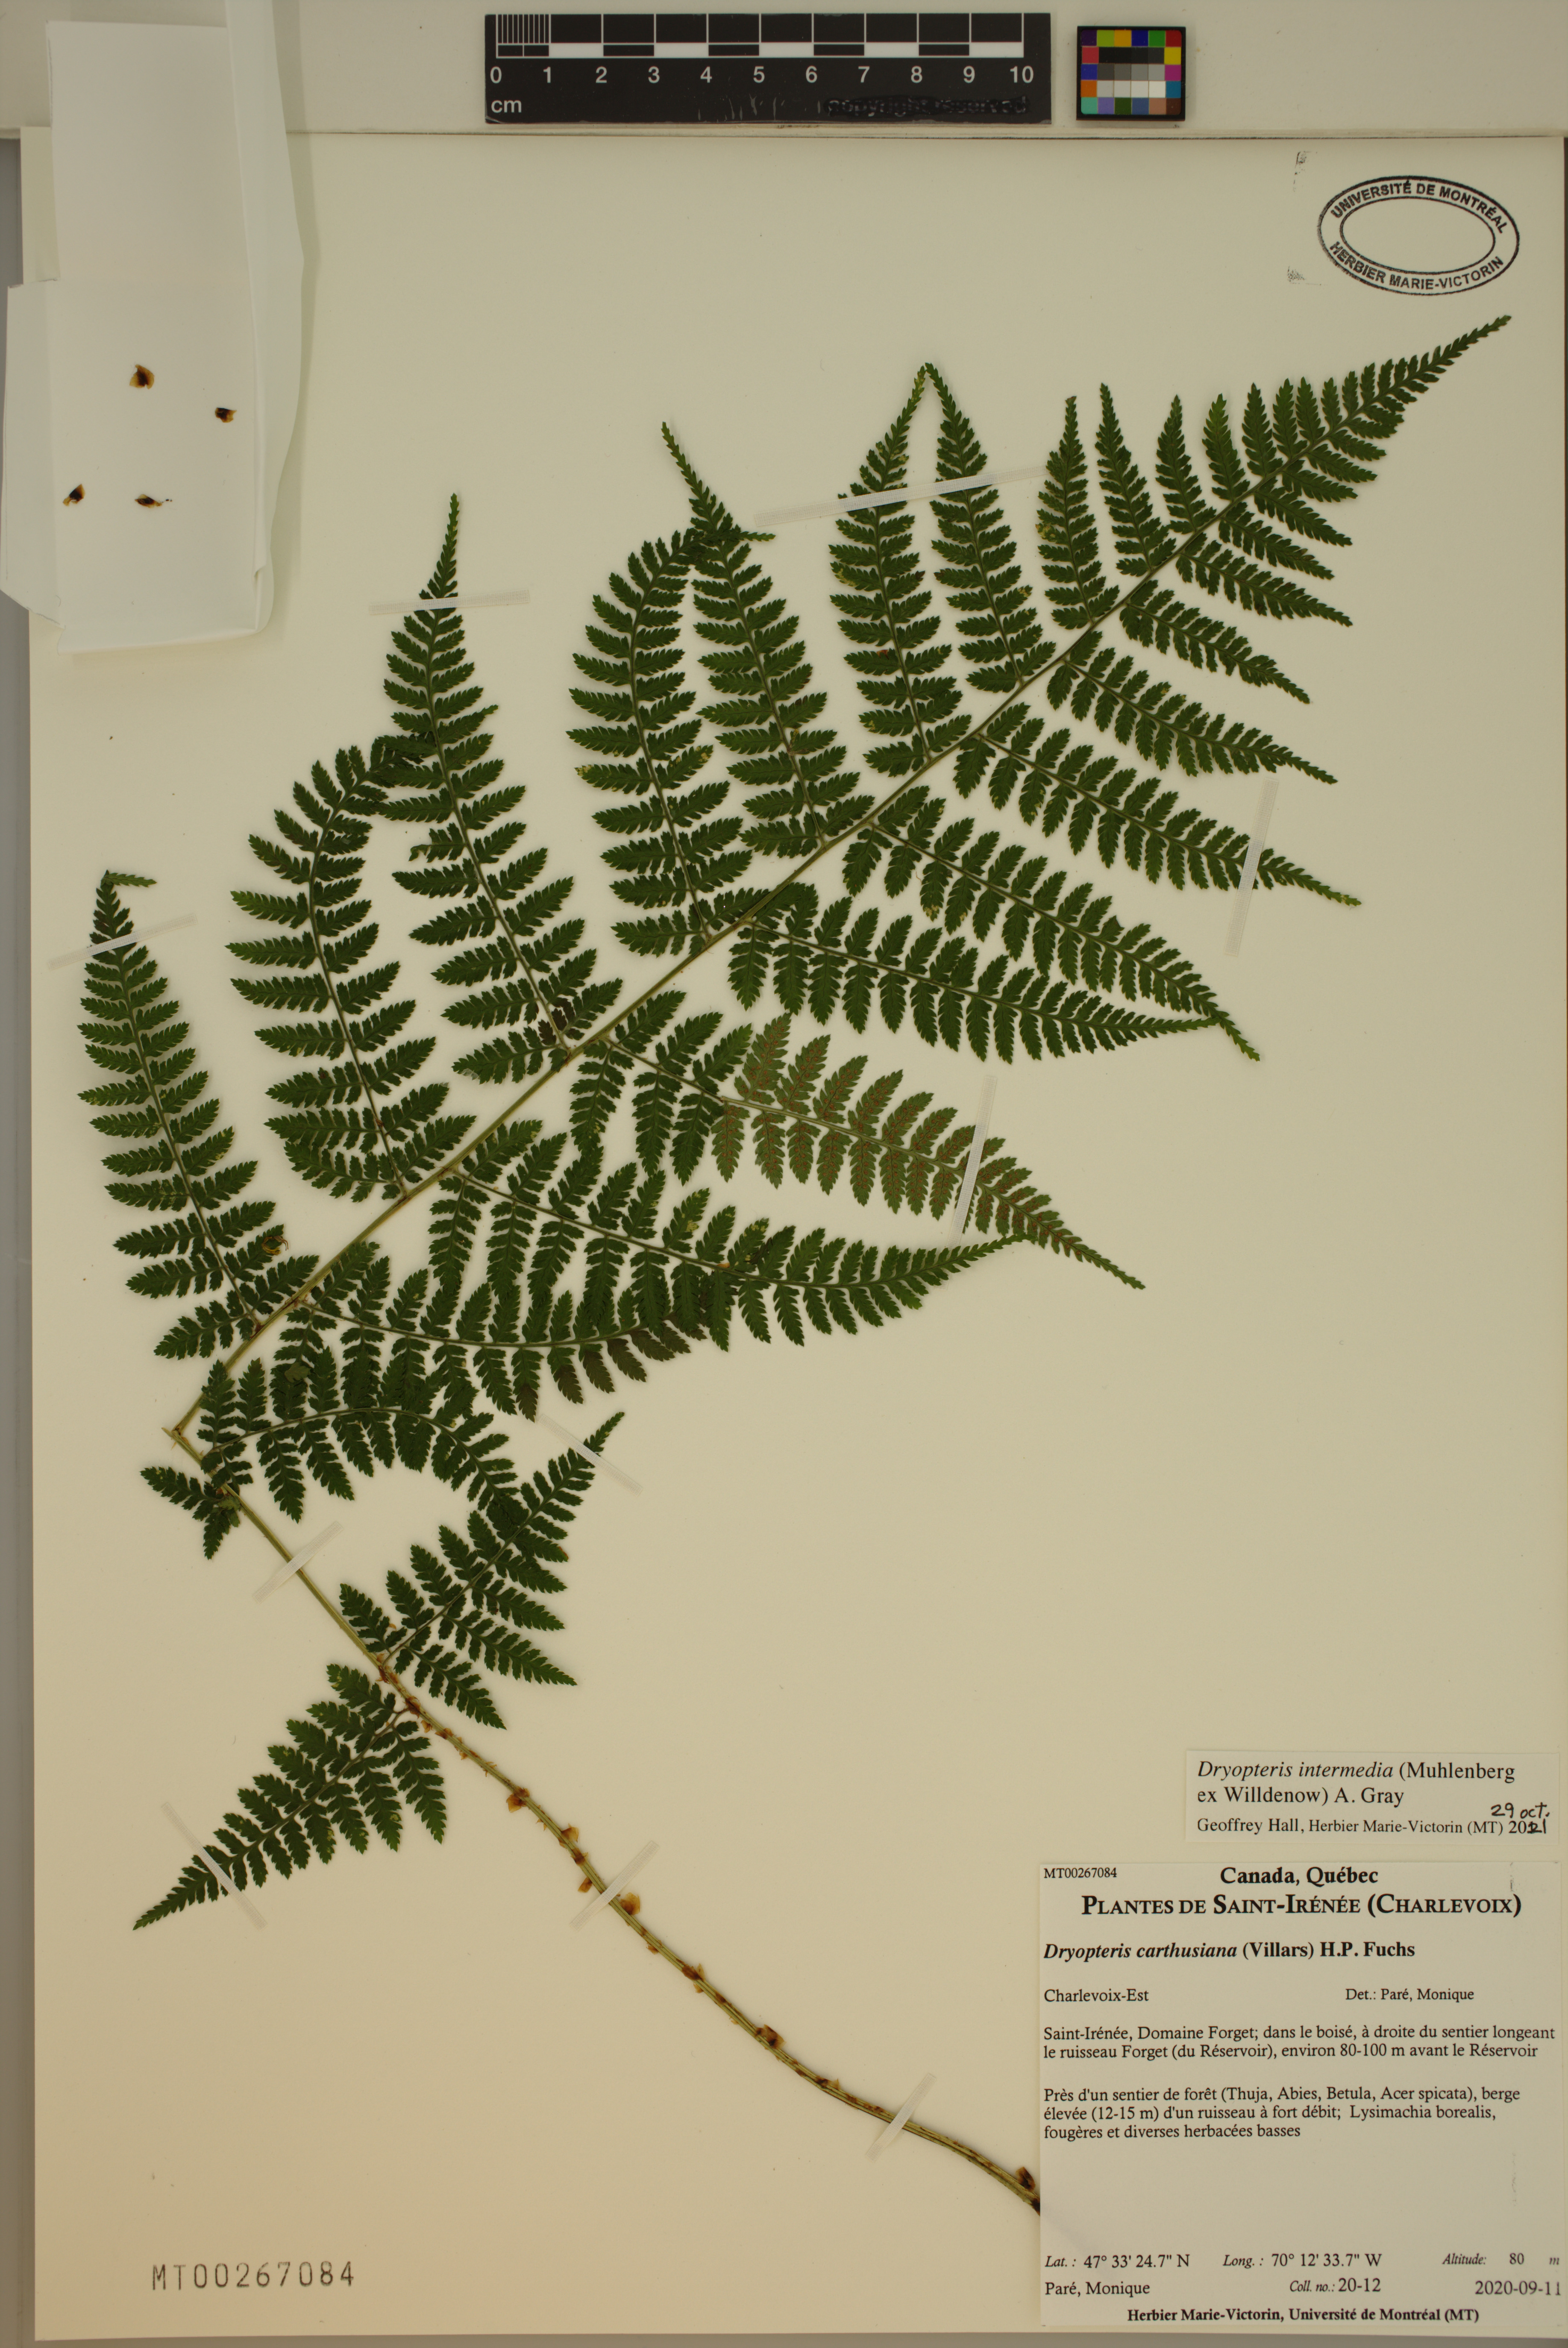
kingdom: Plantae
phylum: Tracheophyta
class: Polypodiopsida
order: Polypodiales
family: Dryopteridaceae
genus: Dryopteris
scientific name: Dryopteris intermedia
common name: Evergreen wood fern
